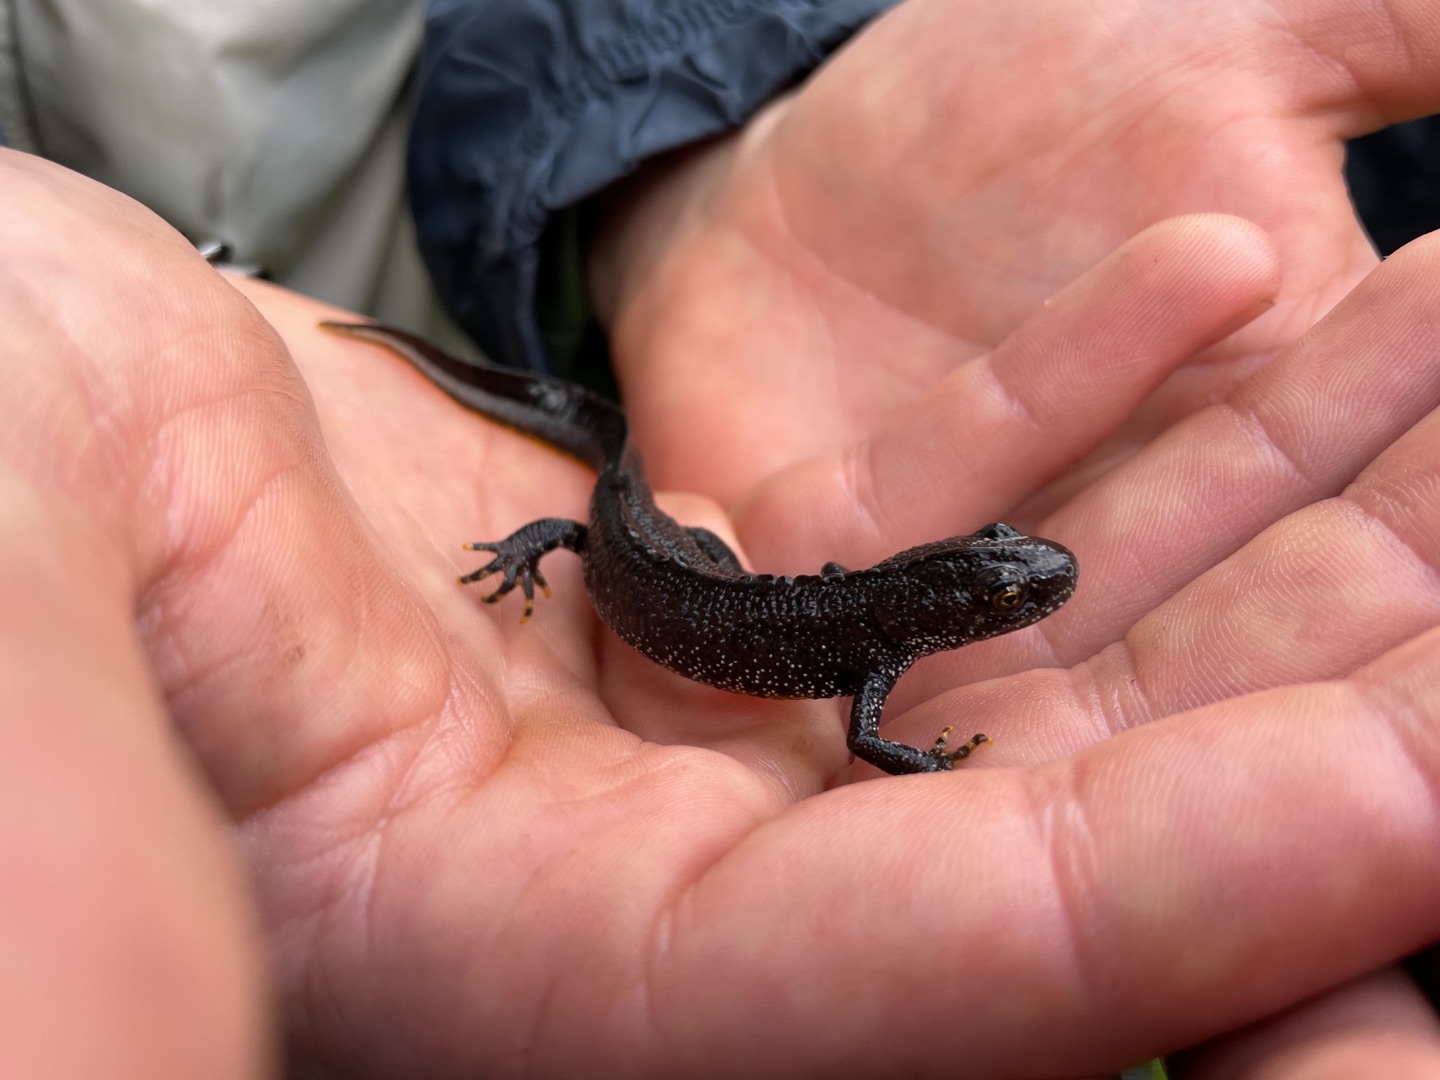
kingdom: Animalia
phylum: Chordata
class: Amphibia
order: Caudata
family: Salamandridae
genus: Triturus
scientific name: Triturus cristatus
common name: Stor vandsalamander
